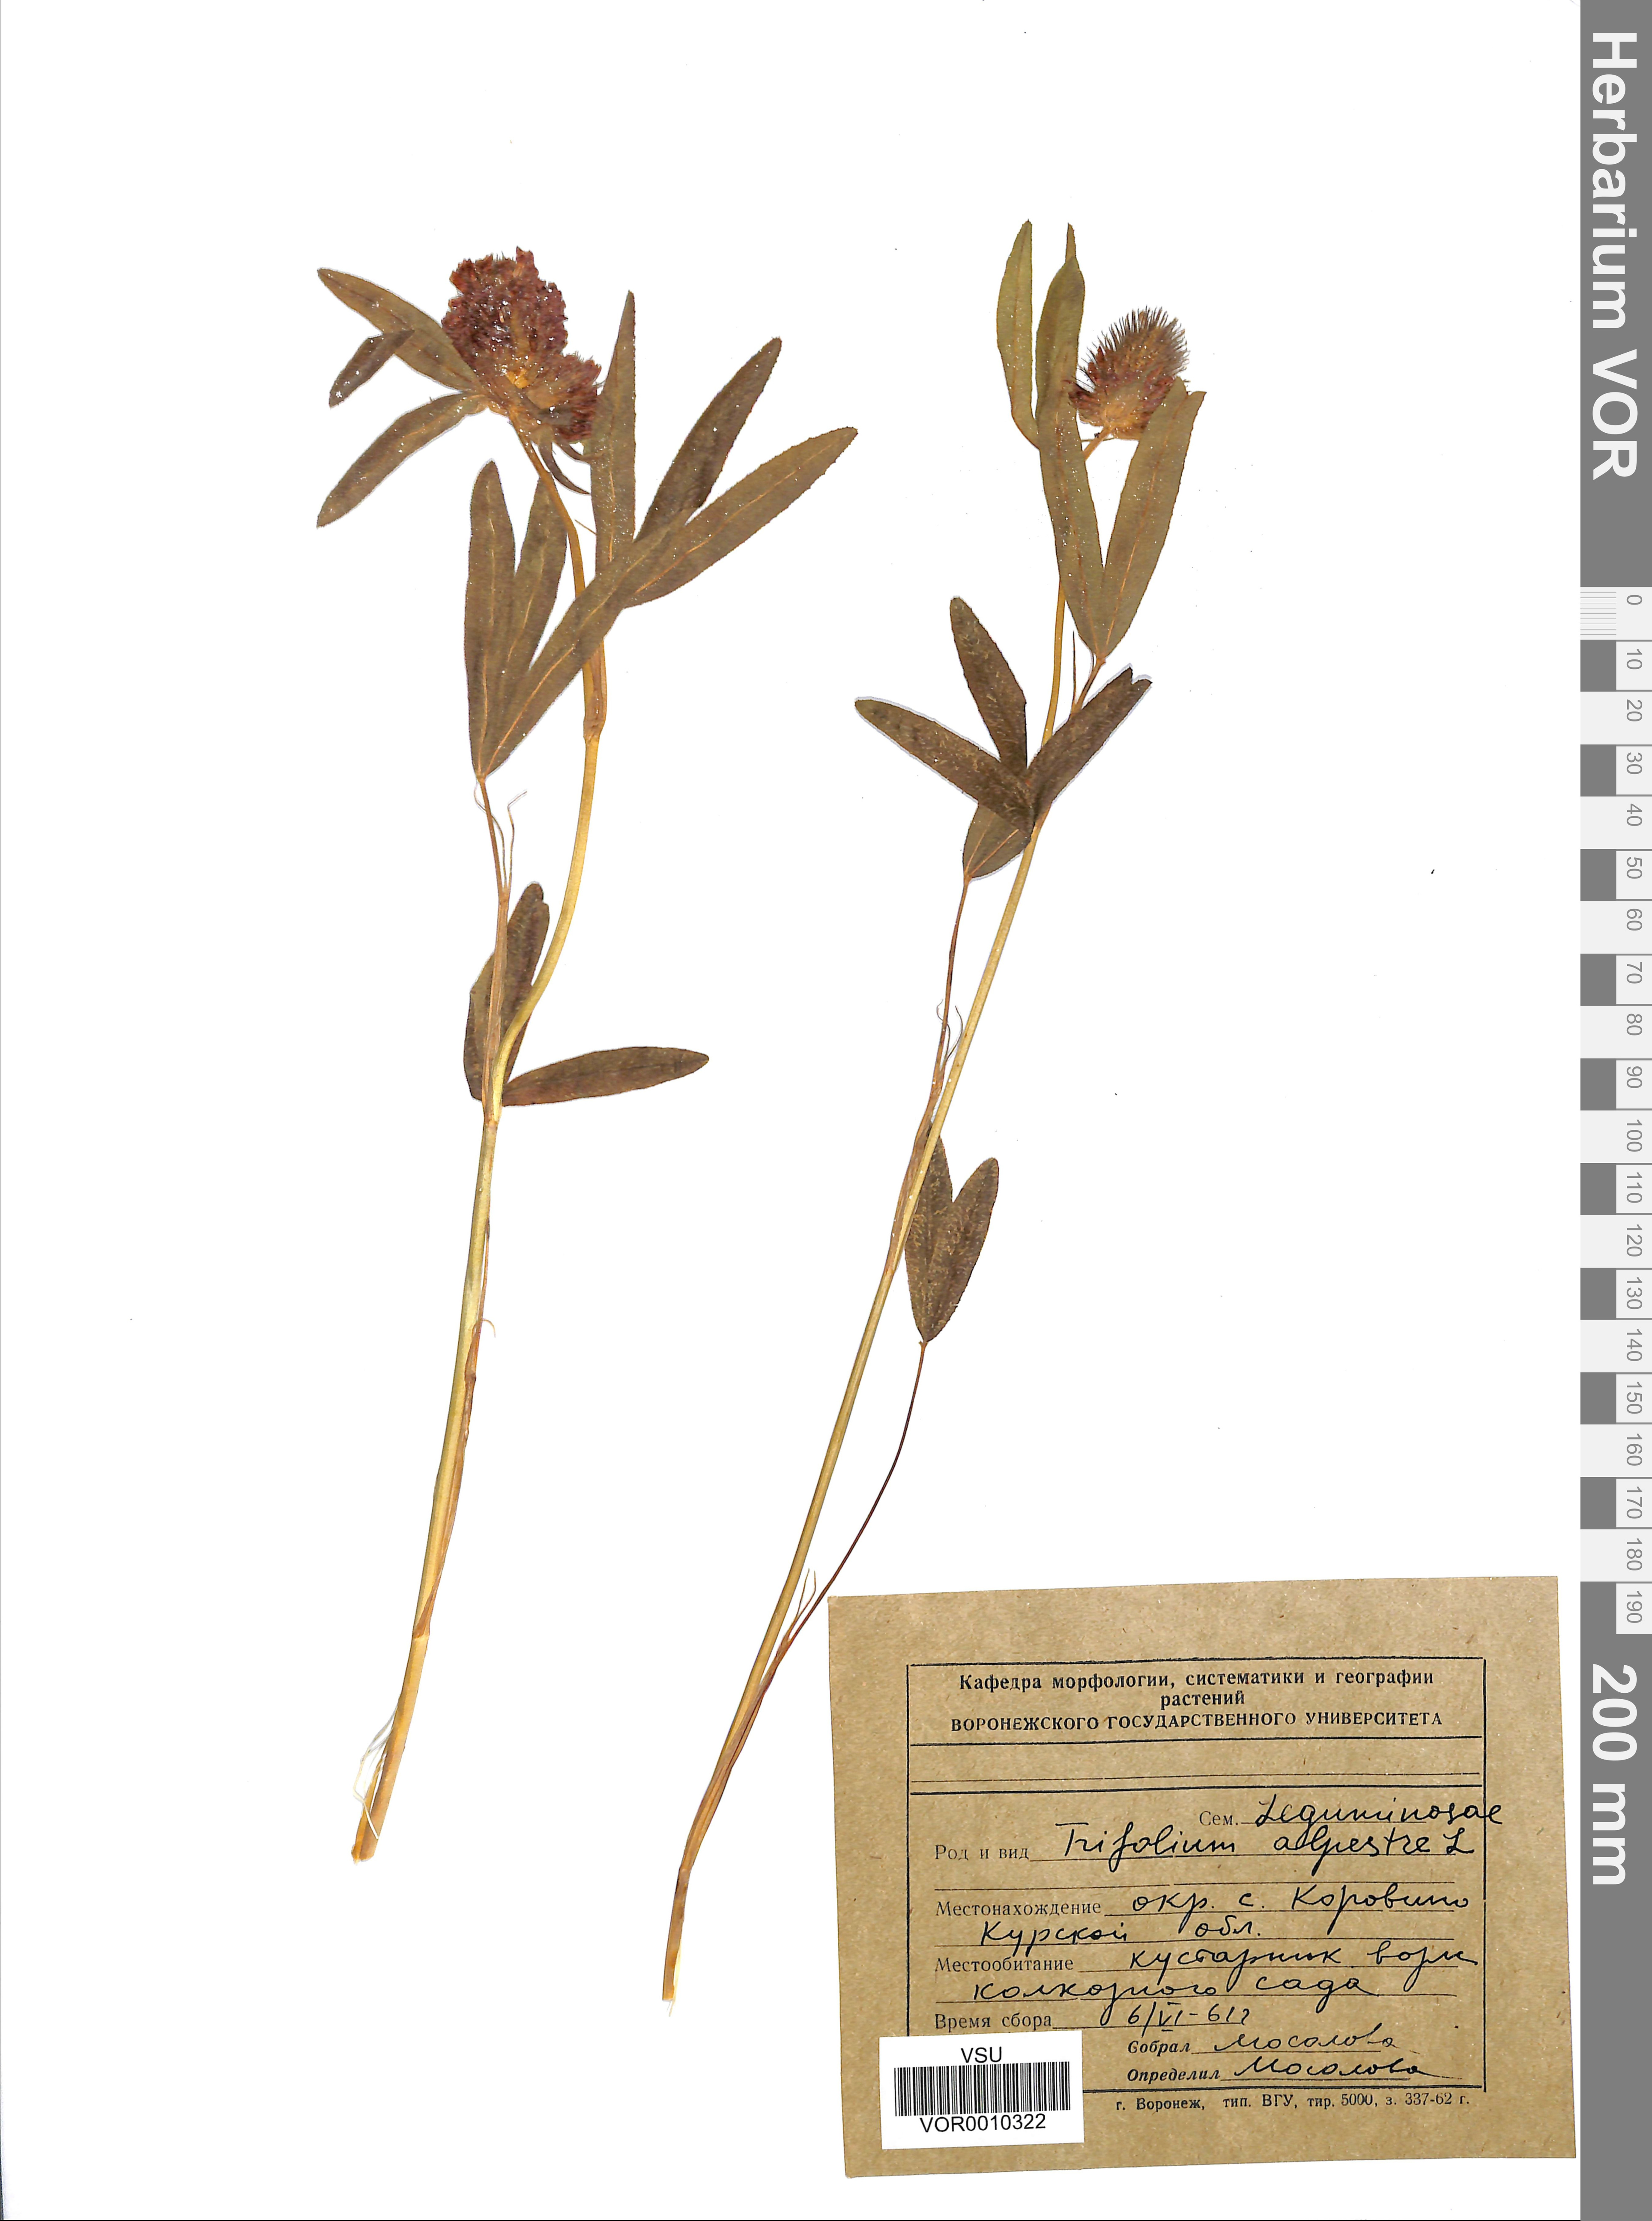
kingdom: Plantae
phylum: Tracheophyta
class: Magnoliopsida
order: Fabales
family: Fabaceae
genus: Trifolium
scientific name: Trifolium alpestre
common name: Owl-head clover
